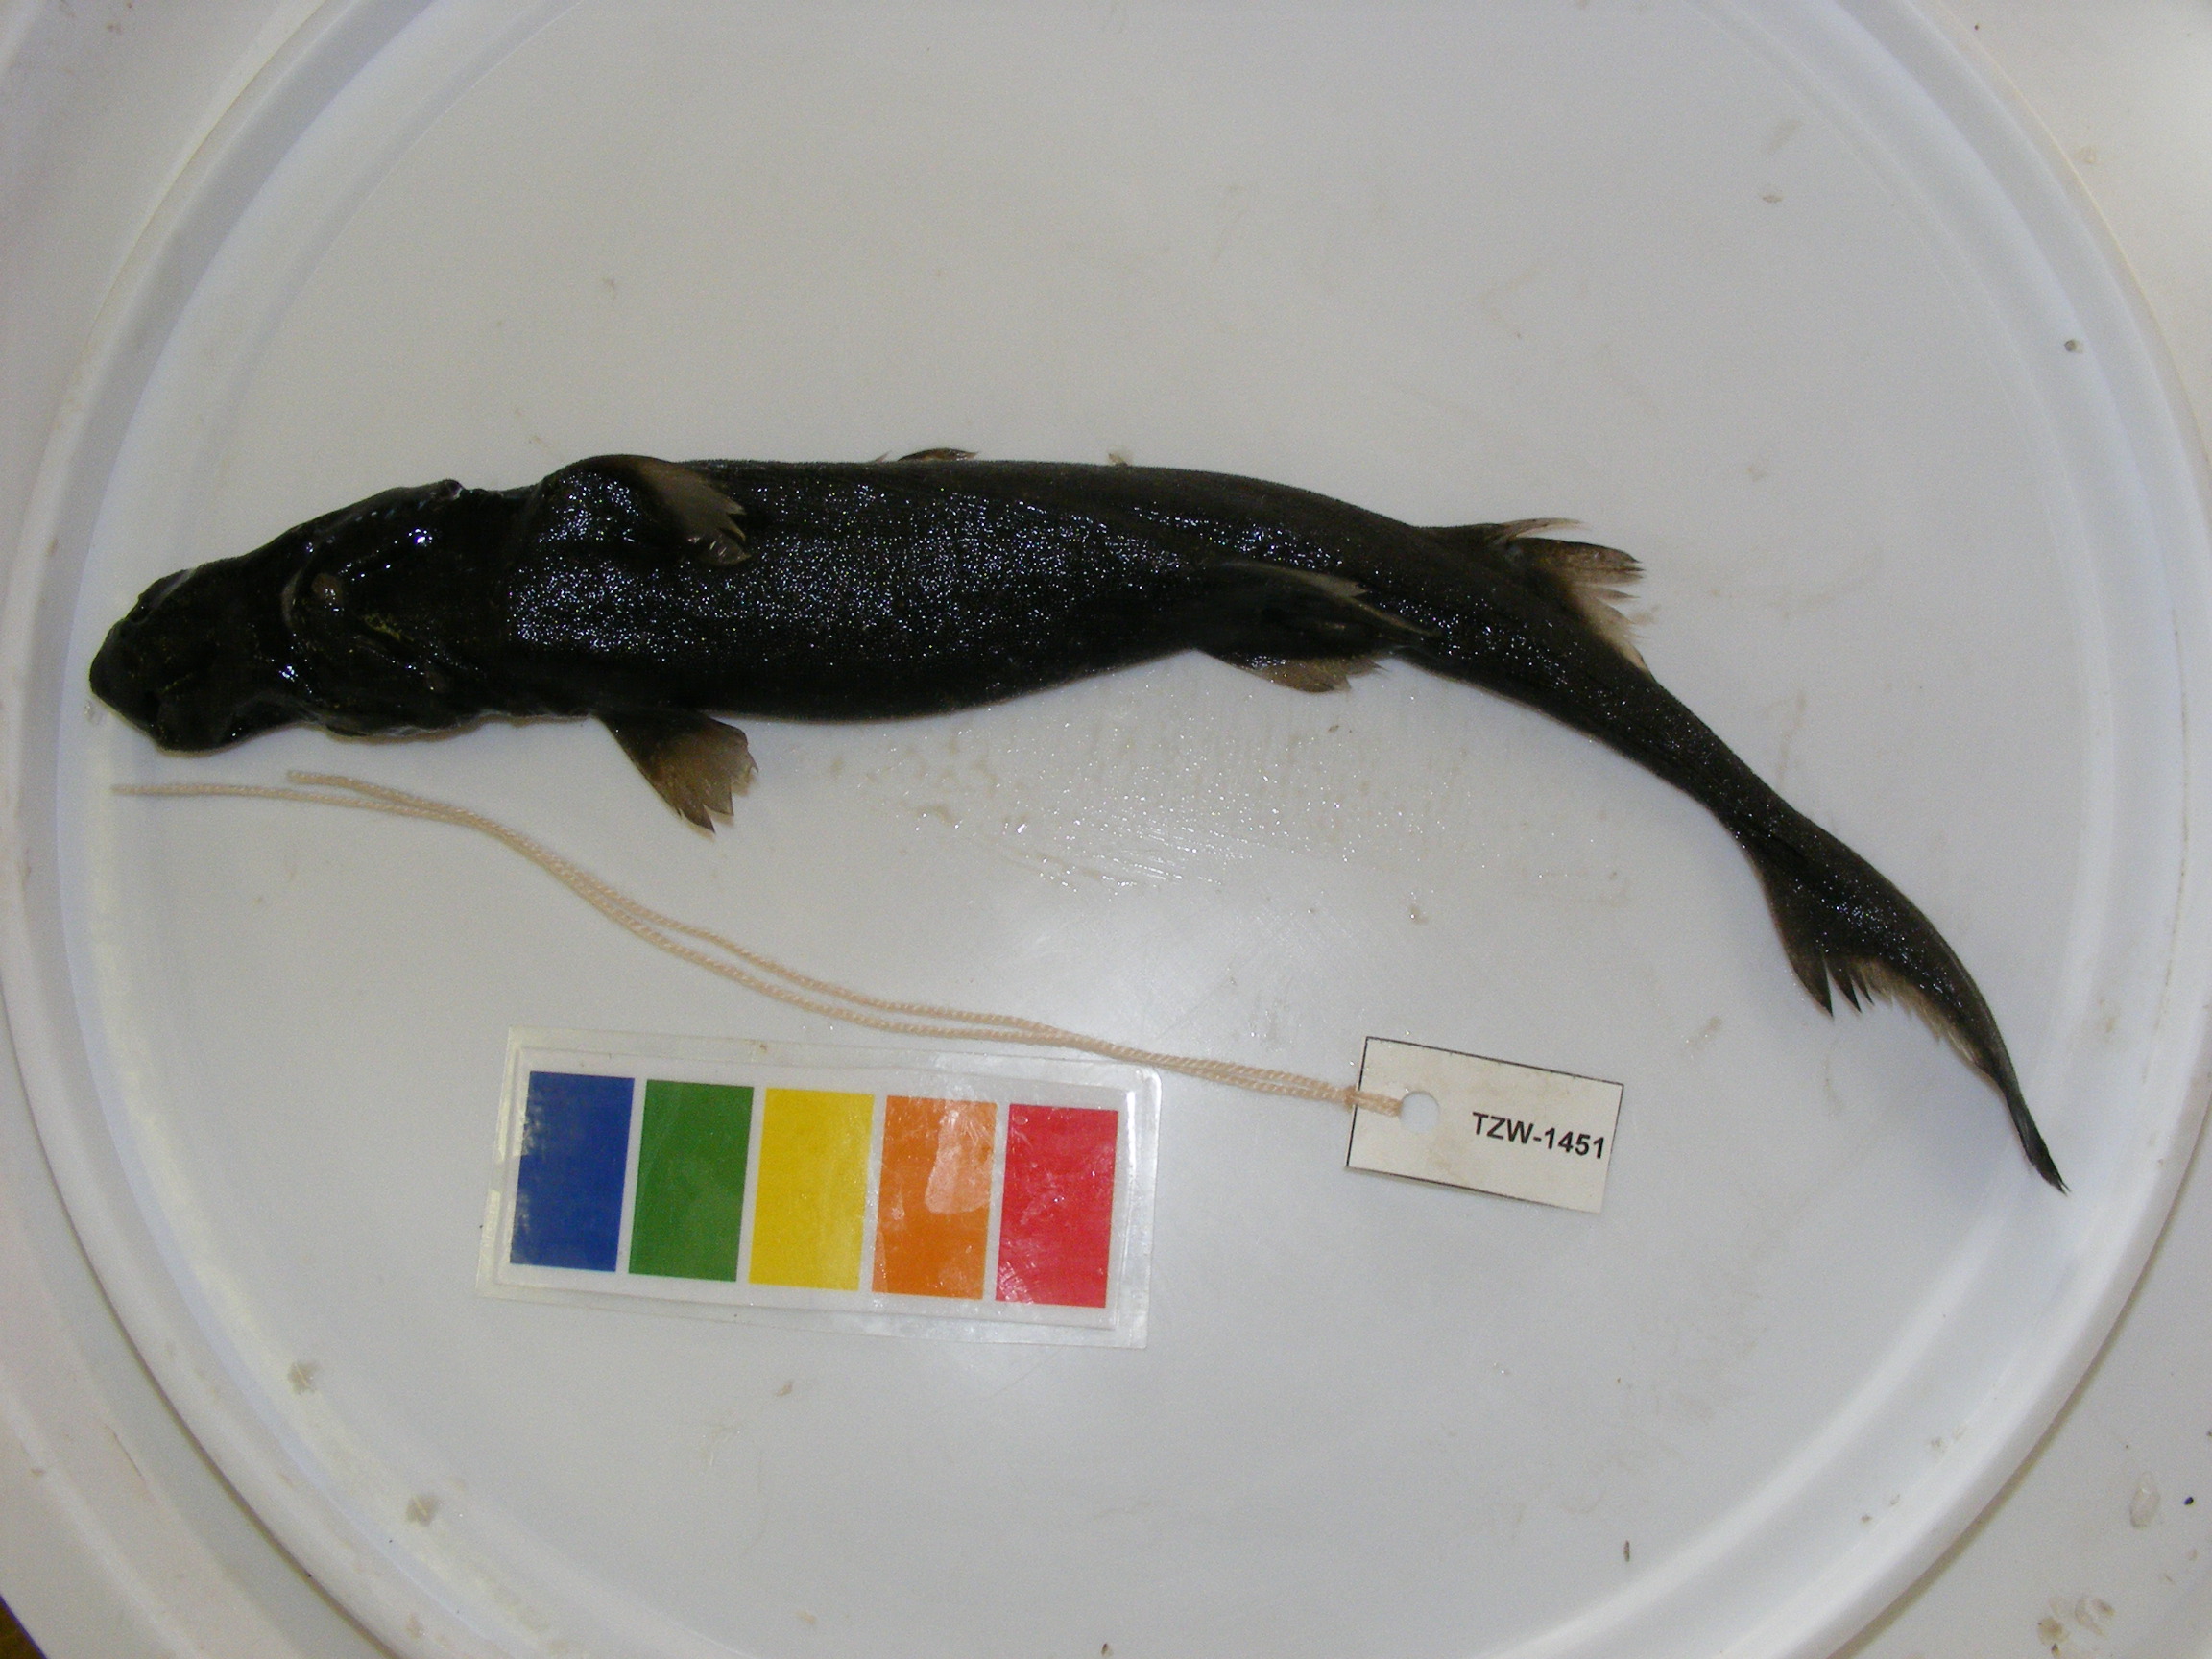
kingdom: Animalia
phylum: Chordata
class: Elasmobranchii
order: Squaliformes
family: Etmopteridae
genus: Etmopterus
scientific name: Etmopterus granulosus
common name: Southern lanternshark
